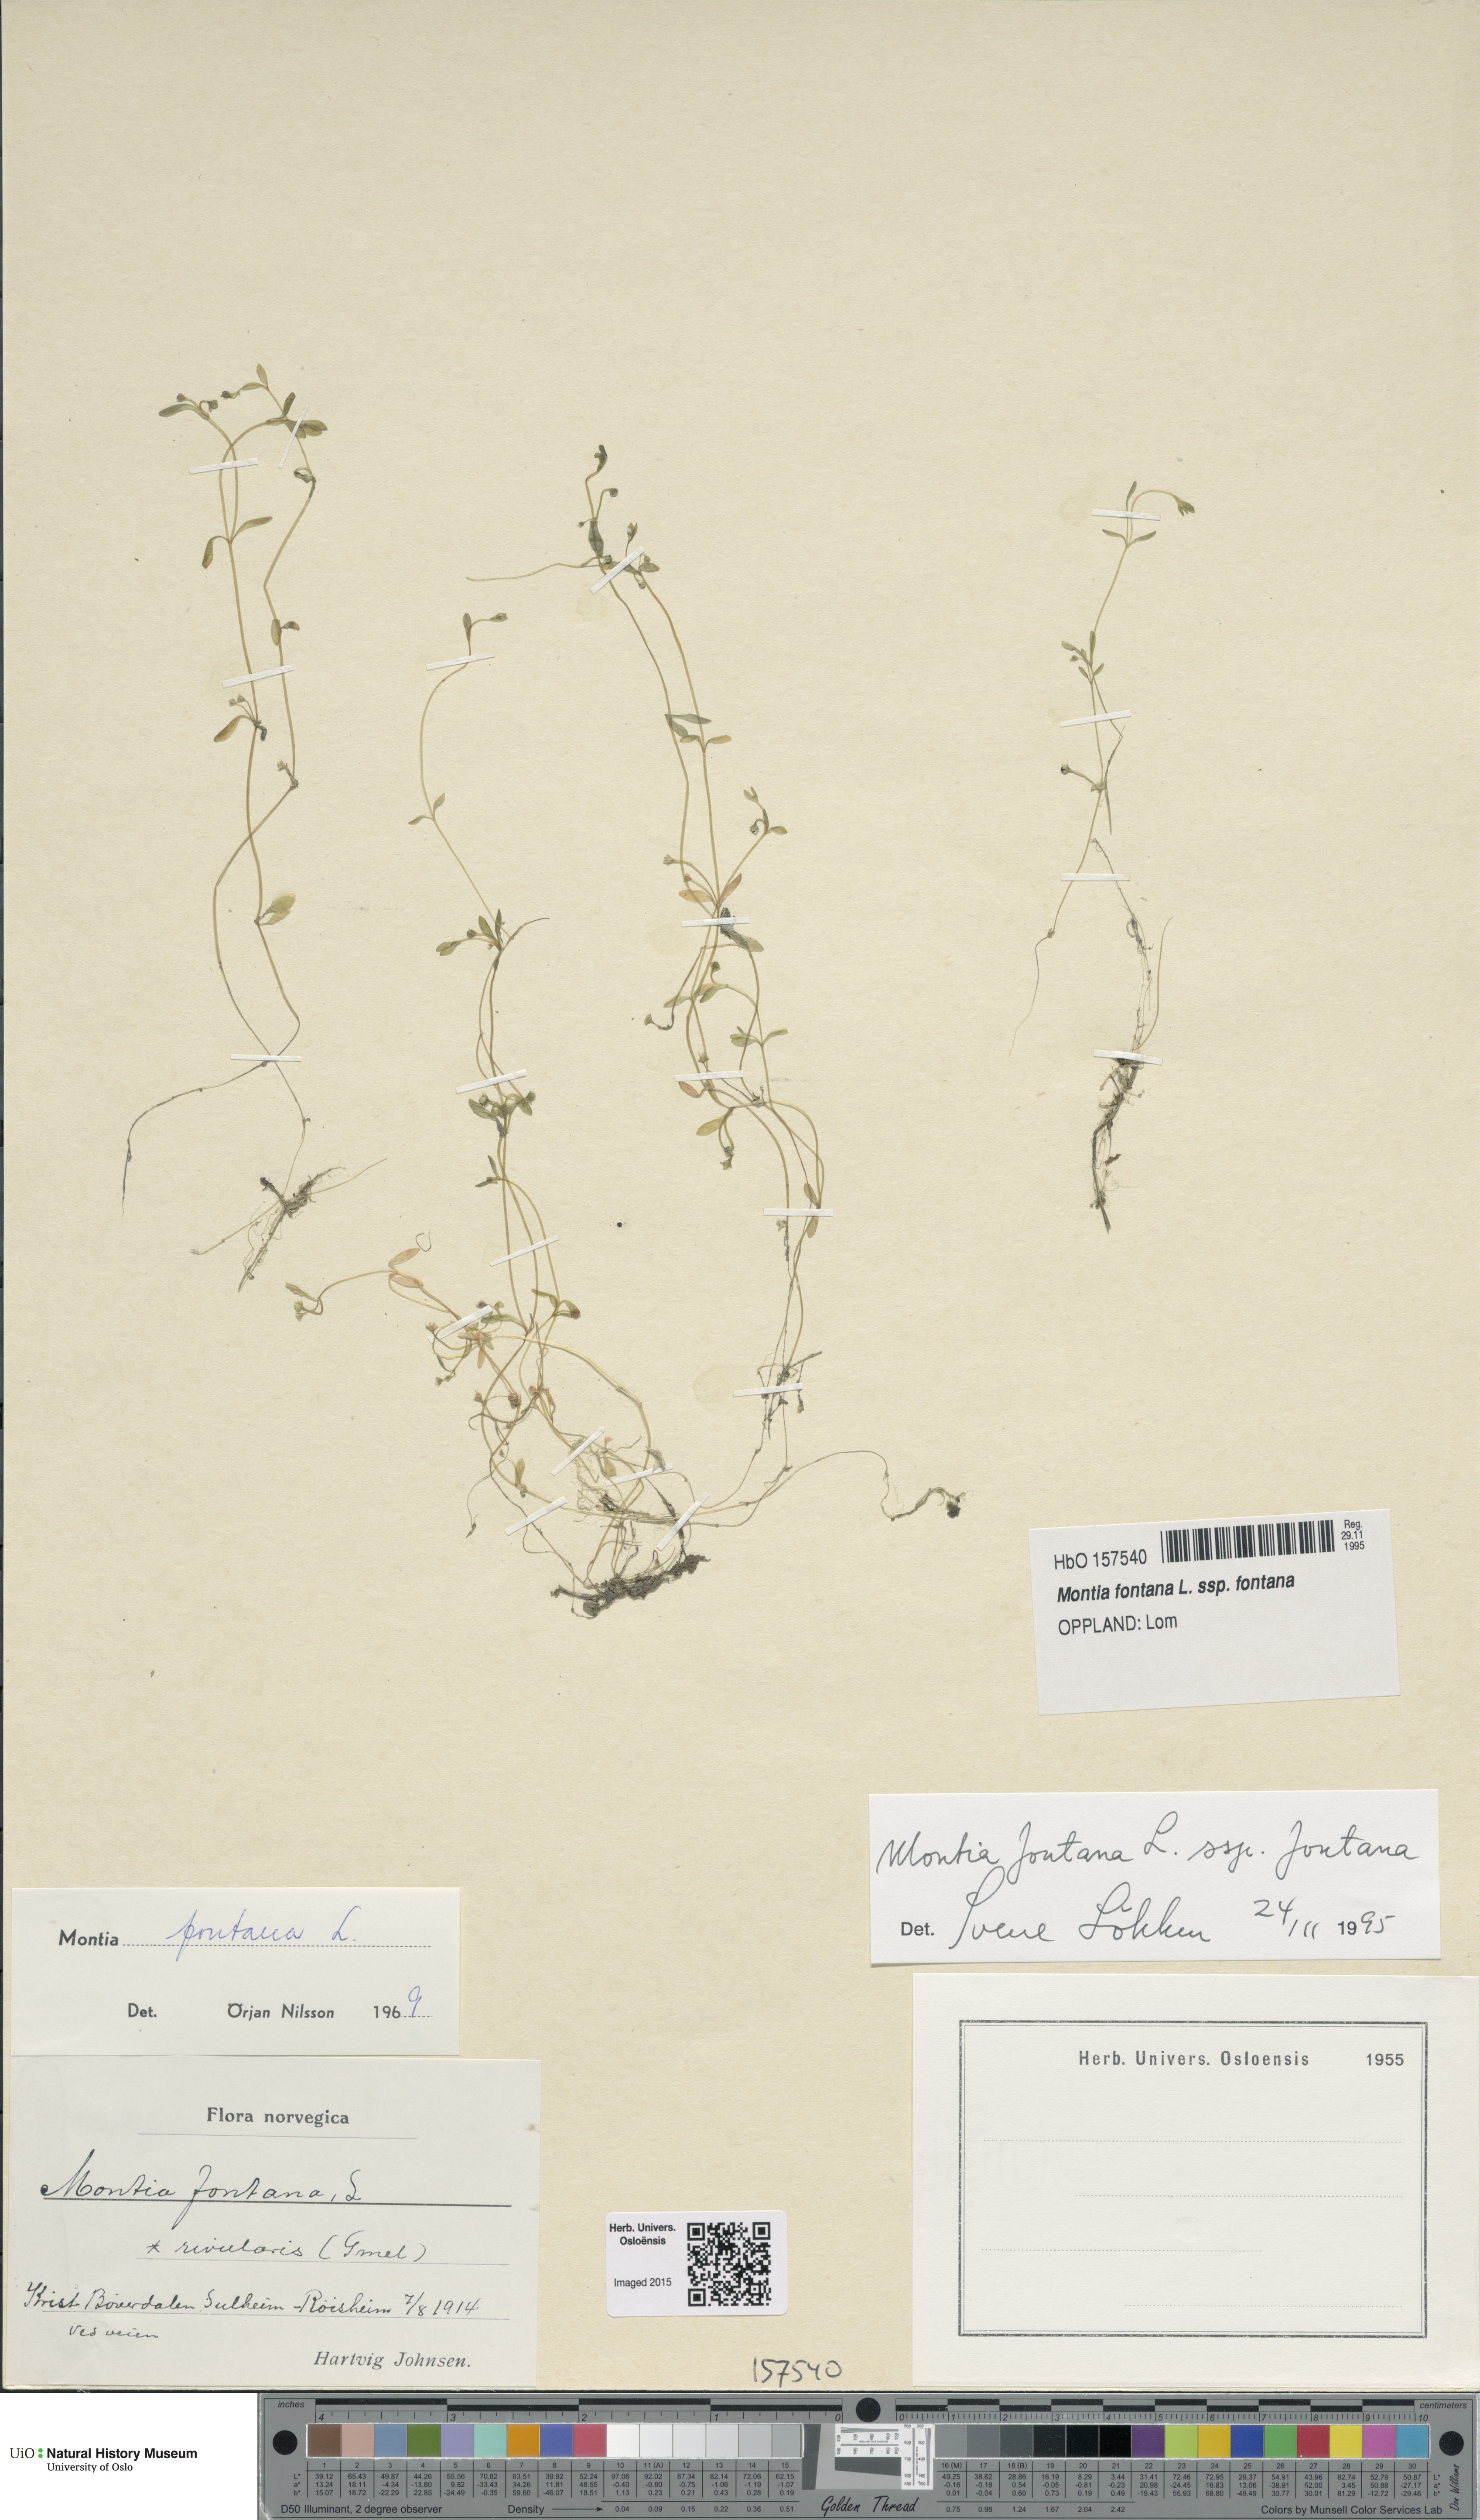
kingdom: Plantae
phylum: Tracheophyta
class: Magnoliopsida
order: Caryophyllales
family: Montiaceae
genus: Montia
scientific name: Montia fontana
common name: Blinks
